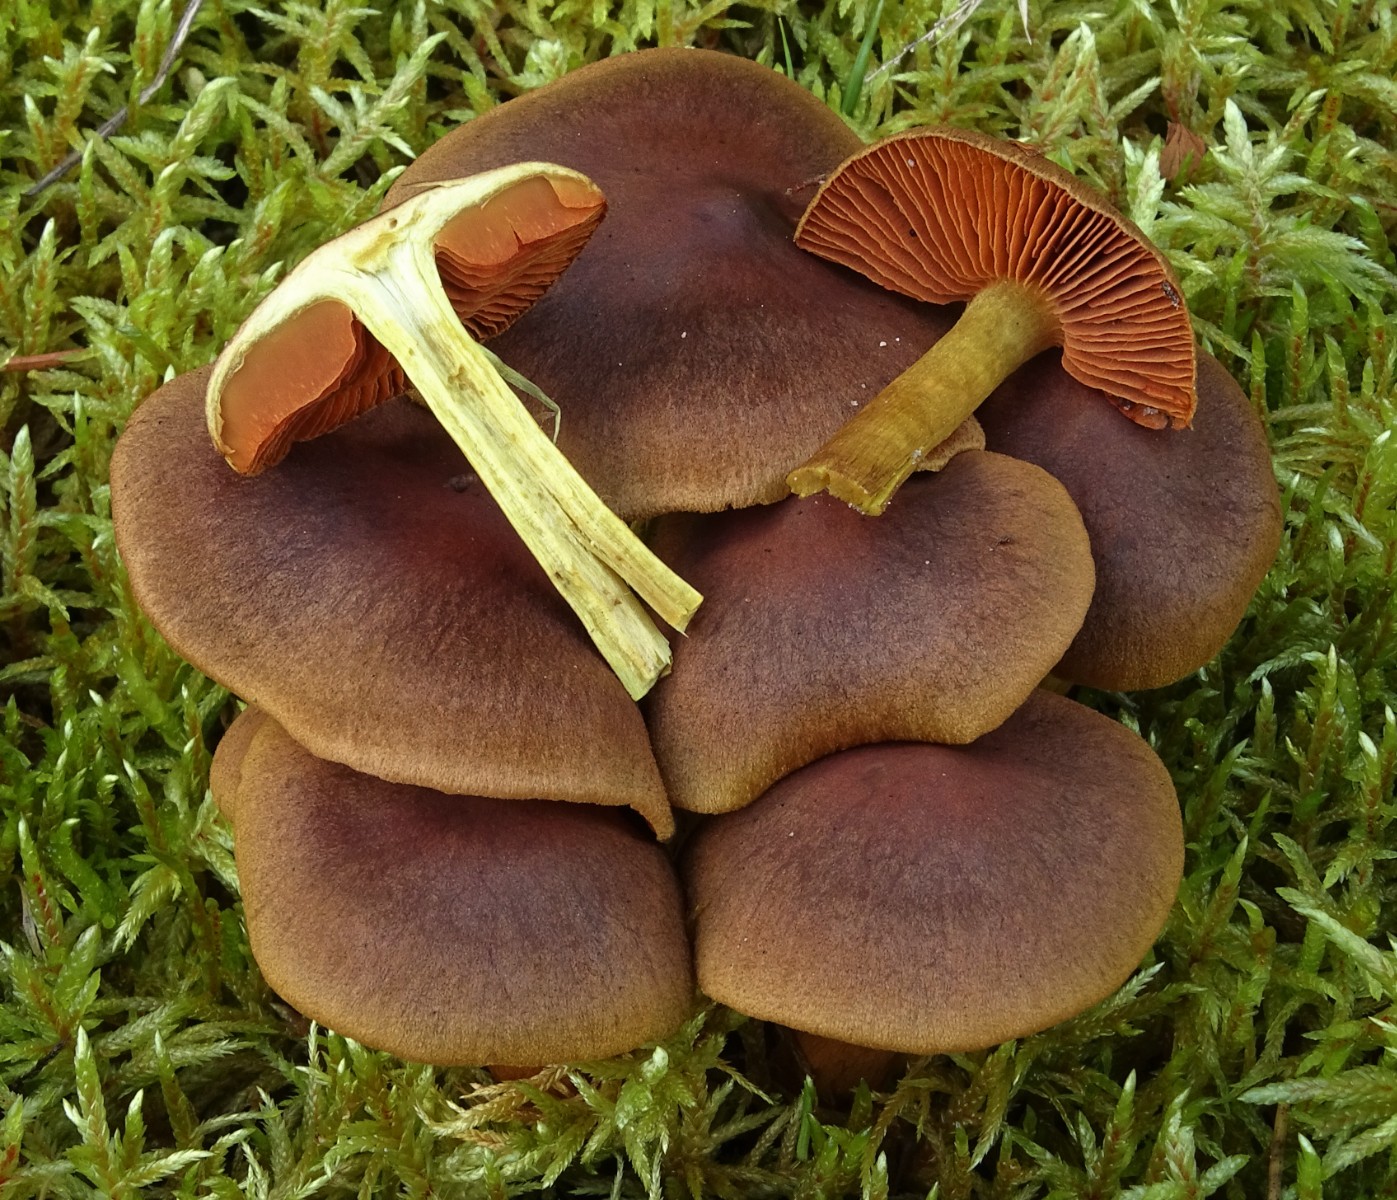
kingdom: Fungi
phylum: Basidiomycota
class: Agaricomycetes
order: Agaricales
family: Cortinariaceae
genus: Cortinarius
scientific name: Cortinarius malicorius
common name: grønkødet slørhat
